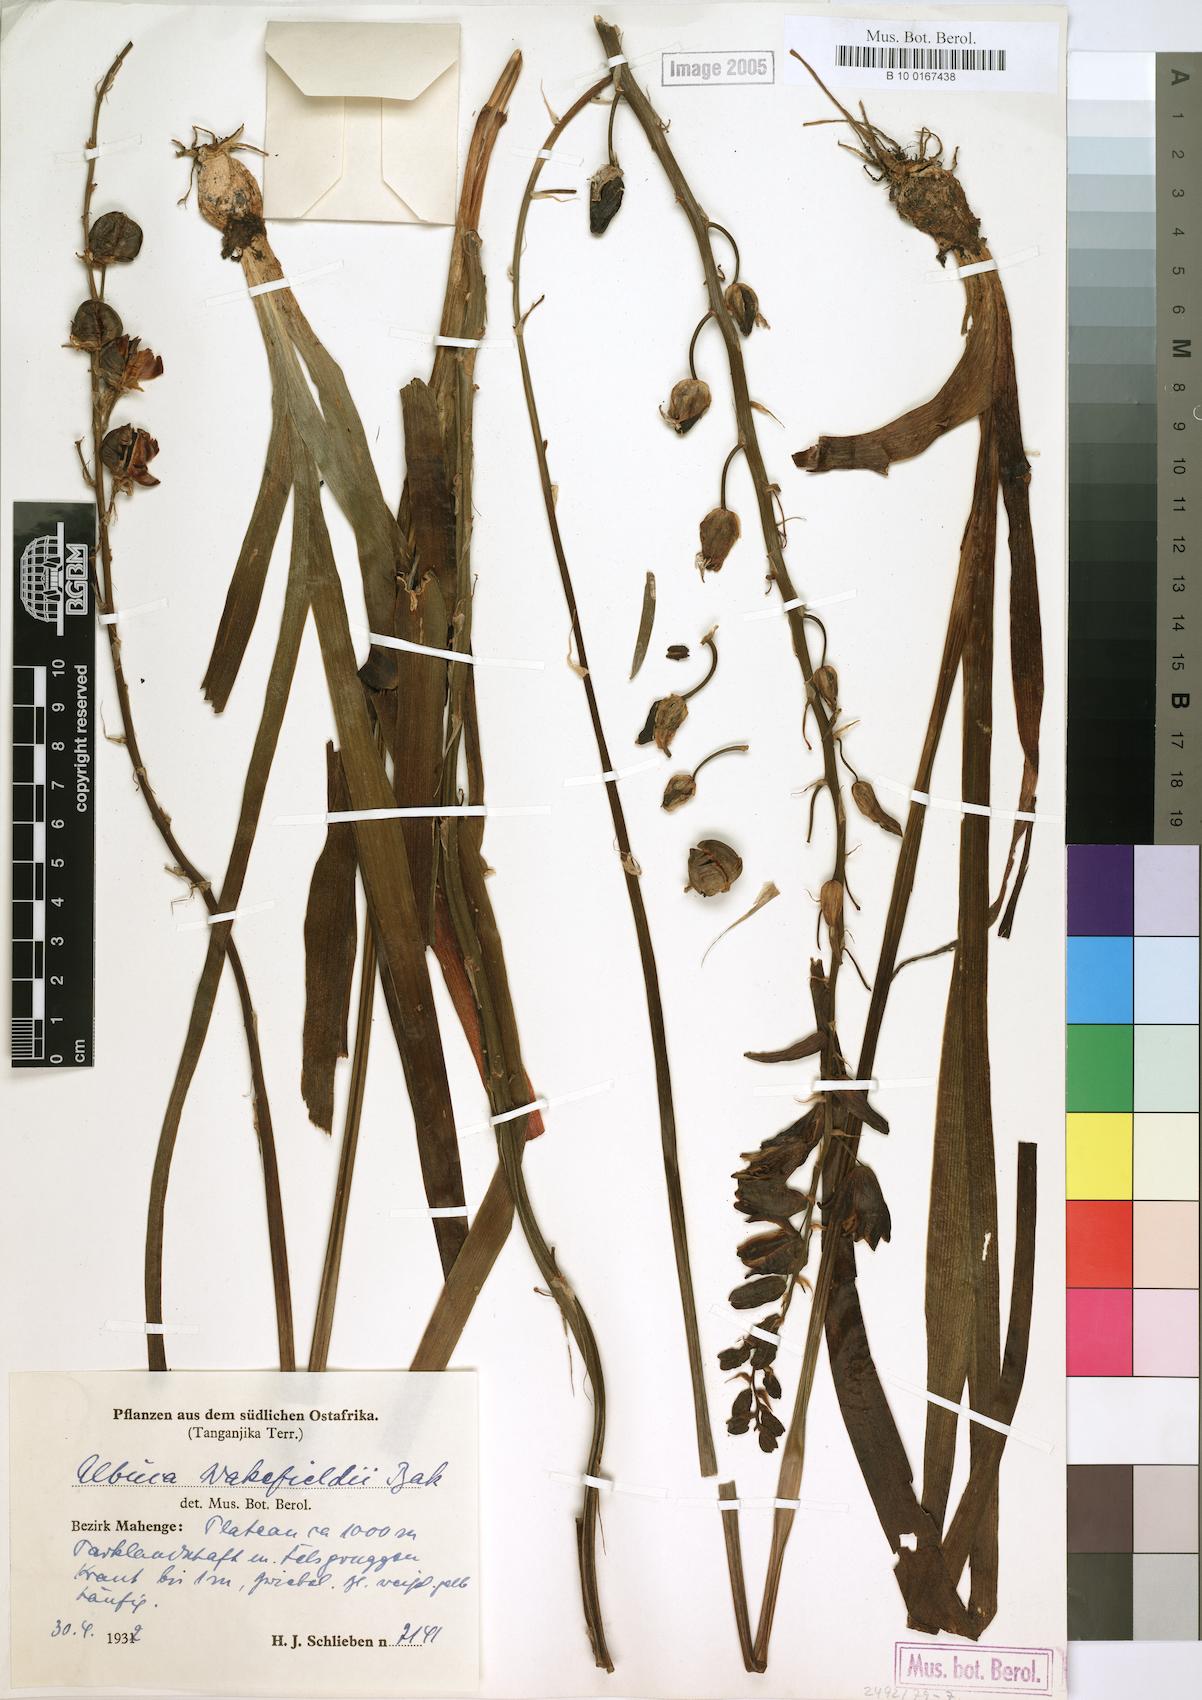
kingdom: Plantae
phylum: Tracheophyta
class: Liliopsida
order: Asparagales
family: Asparagaceae
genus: Albuca
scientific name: Albuca abyssinica
